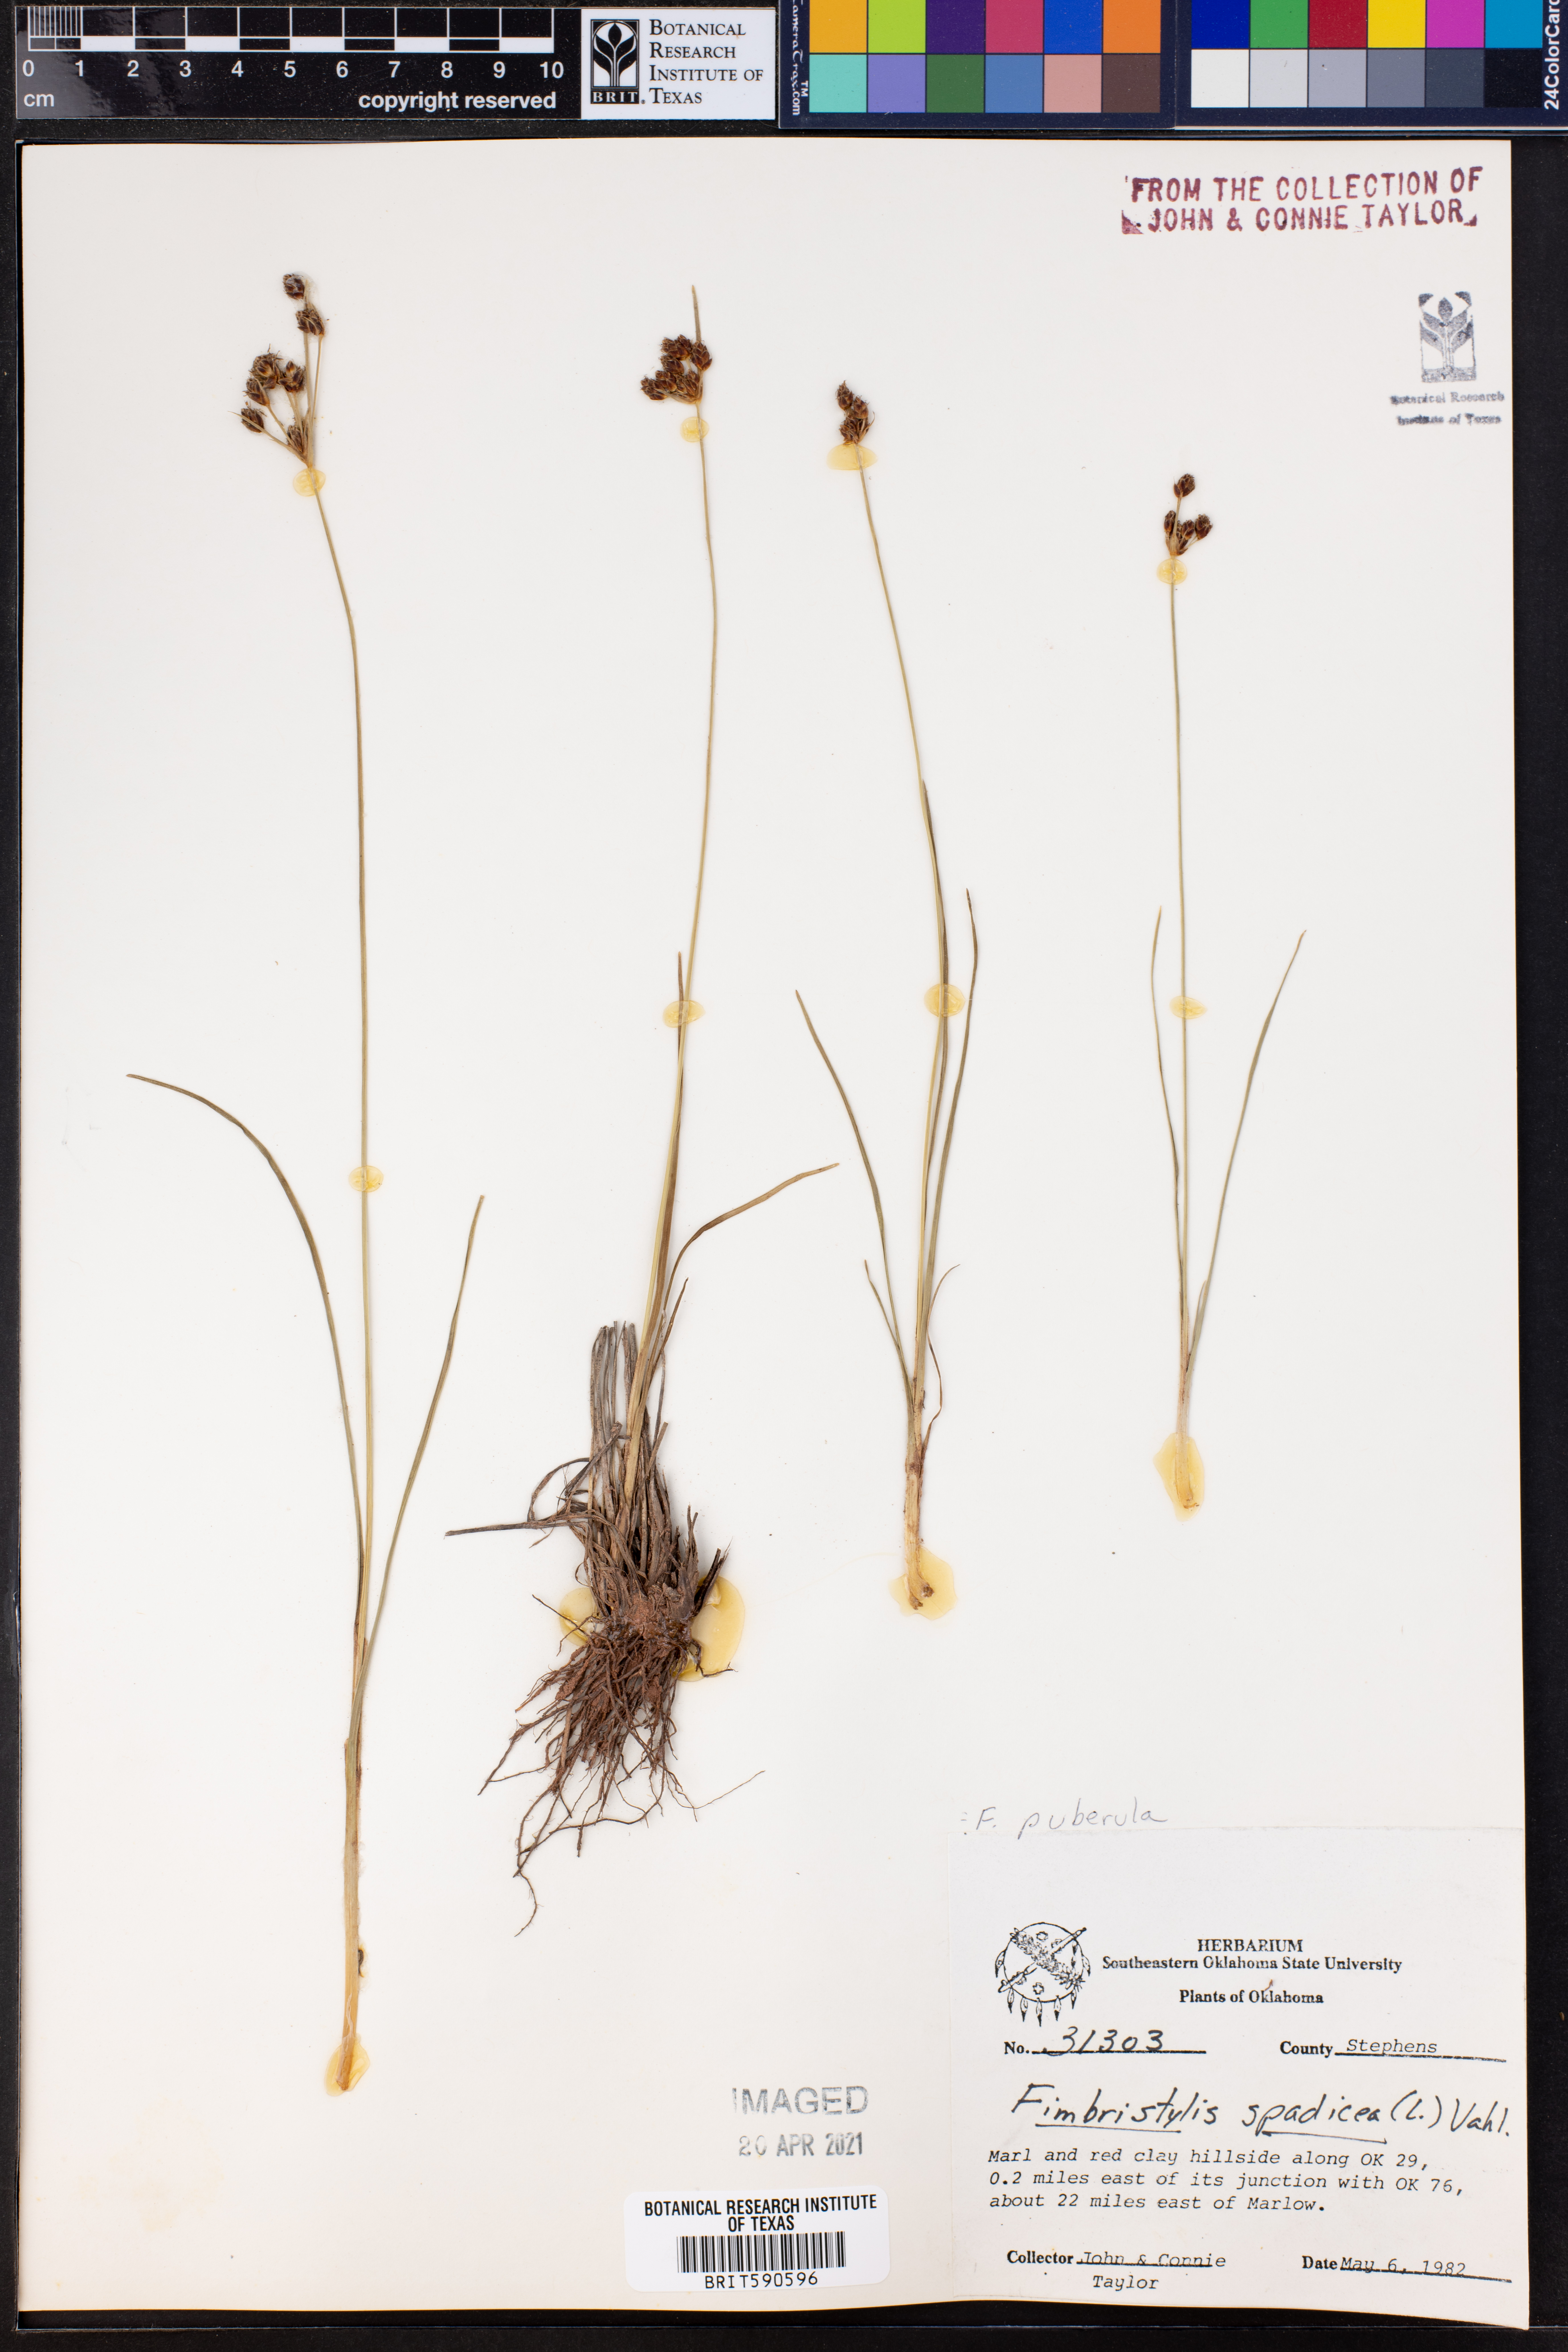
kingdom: Plantae
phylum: Tracheophyta
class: Liliopsida
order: Poales
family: Cyperaceae
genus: Fimbristylis
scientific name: Fimbristylis puberula
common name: Hairy fimbristylis
